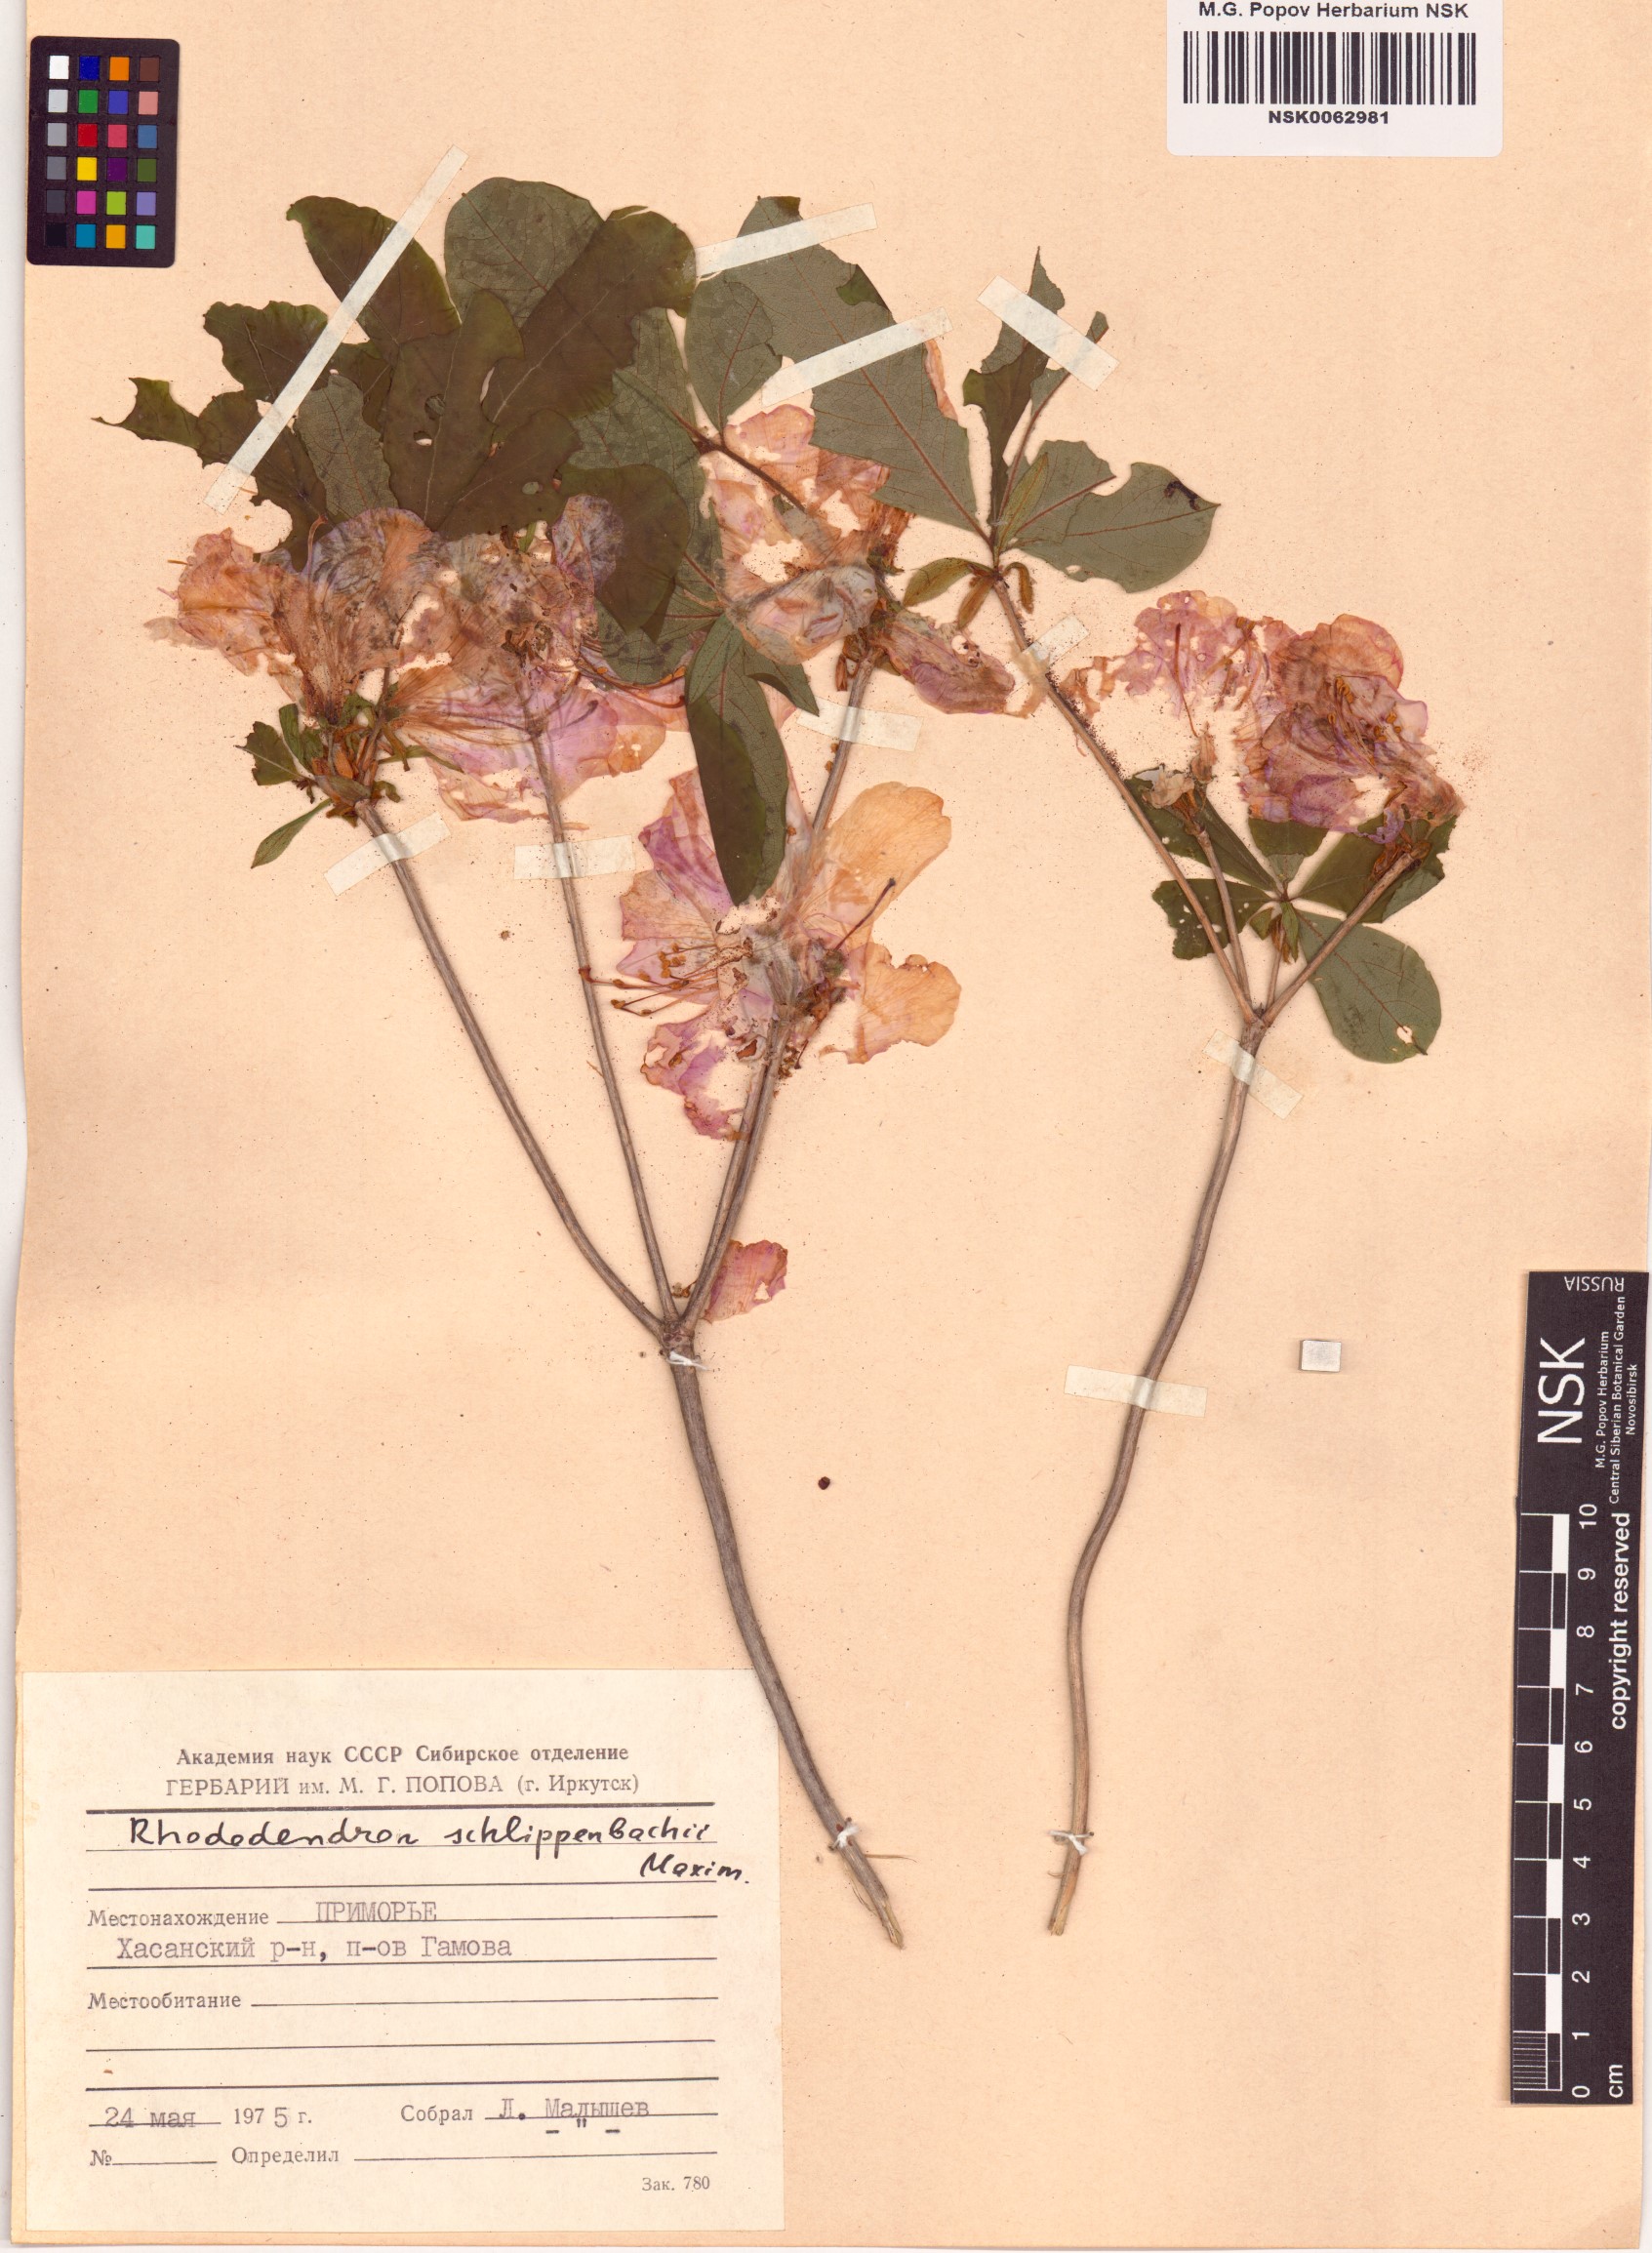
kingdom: Plantae
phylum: Tracheophyta
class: Magnoliopsida
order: Ericales
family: Ericaceae
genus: Rhododendron
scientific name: Rhododendron schlippenbachii
